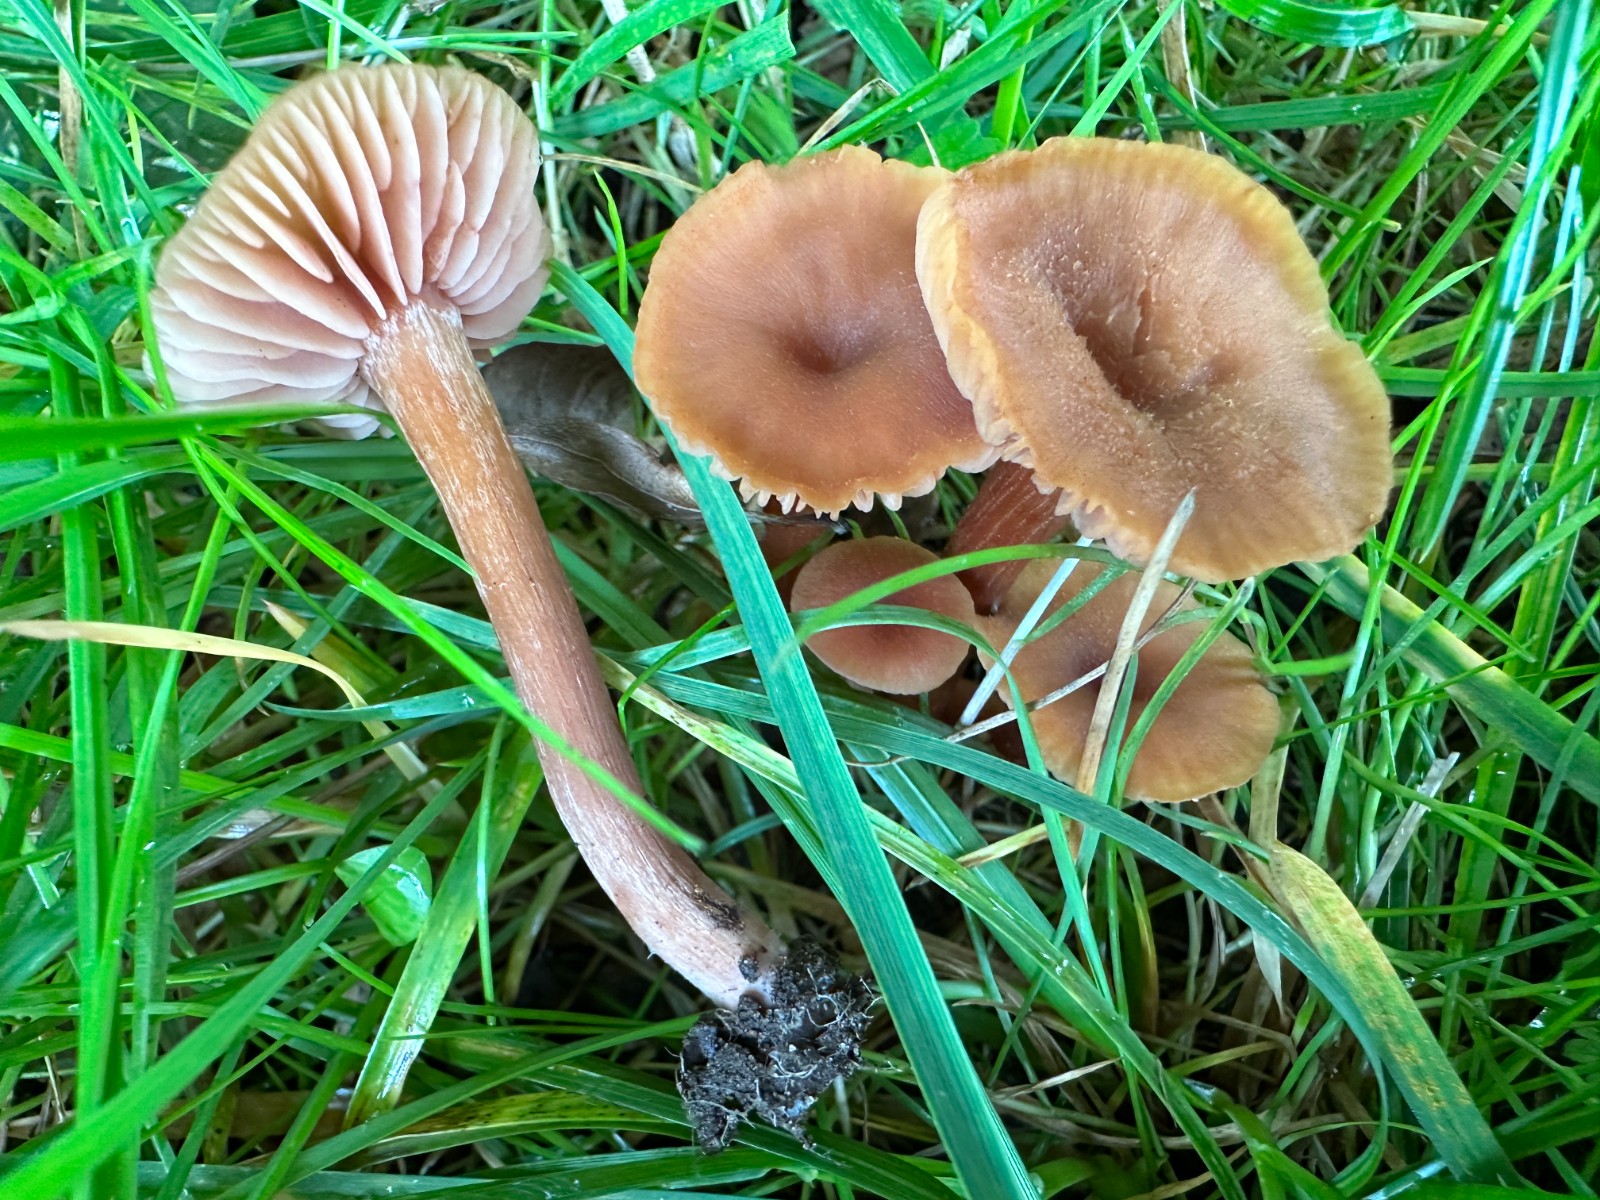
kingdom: Fungi
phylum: Basidiomycota
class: Agaricomycetes
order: Agaricales
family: Hydnangiaceae
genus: Laccaria
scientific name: Laccaria proxima
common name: stor ametysthat
